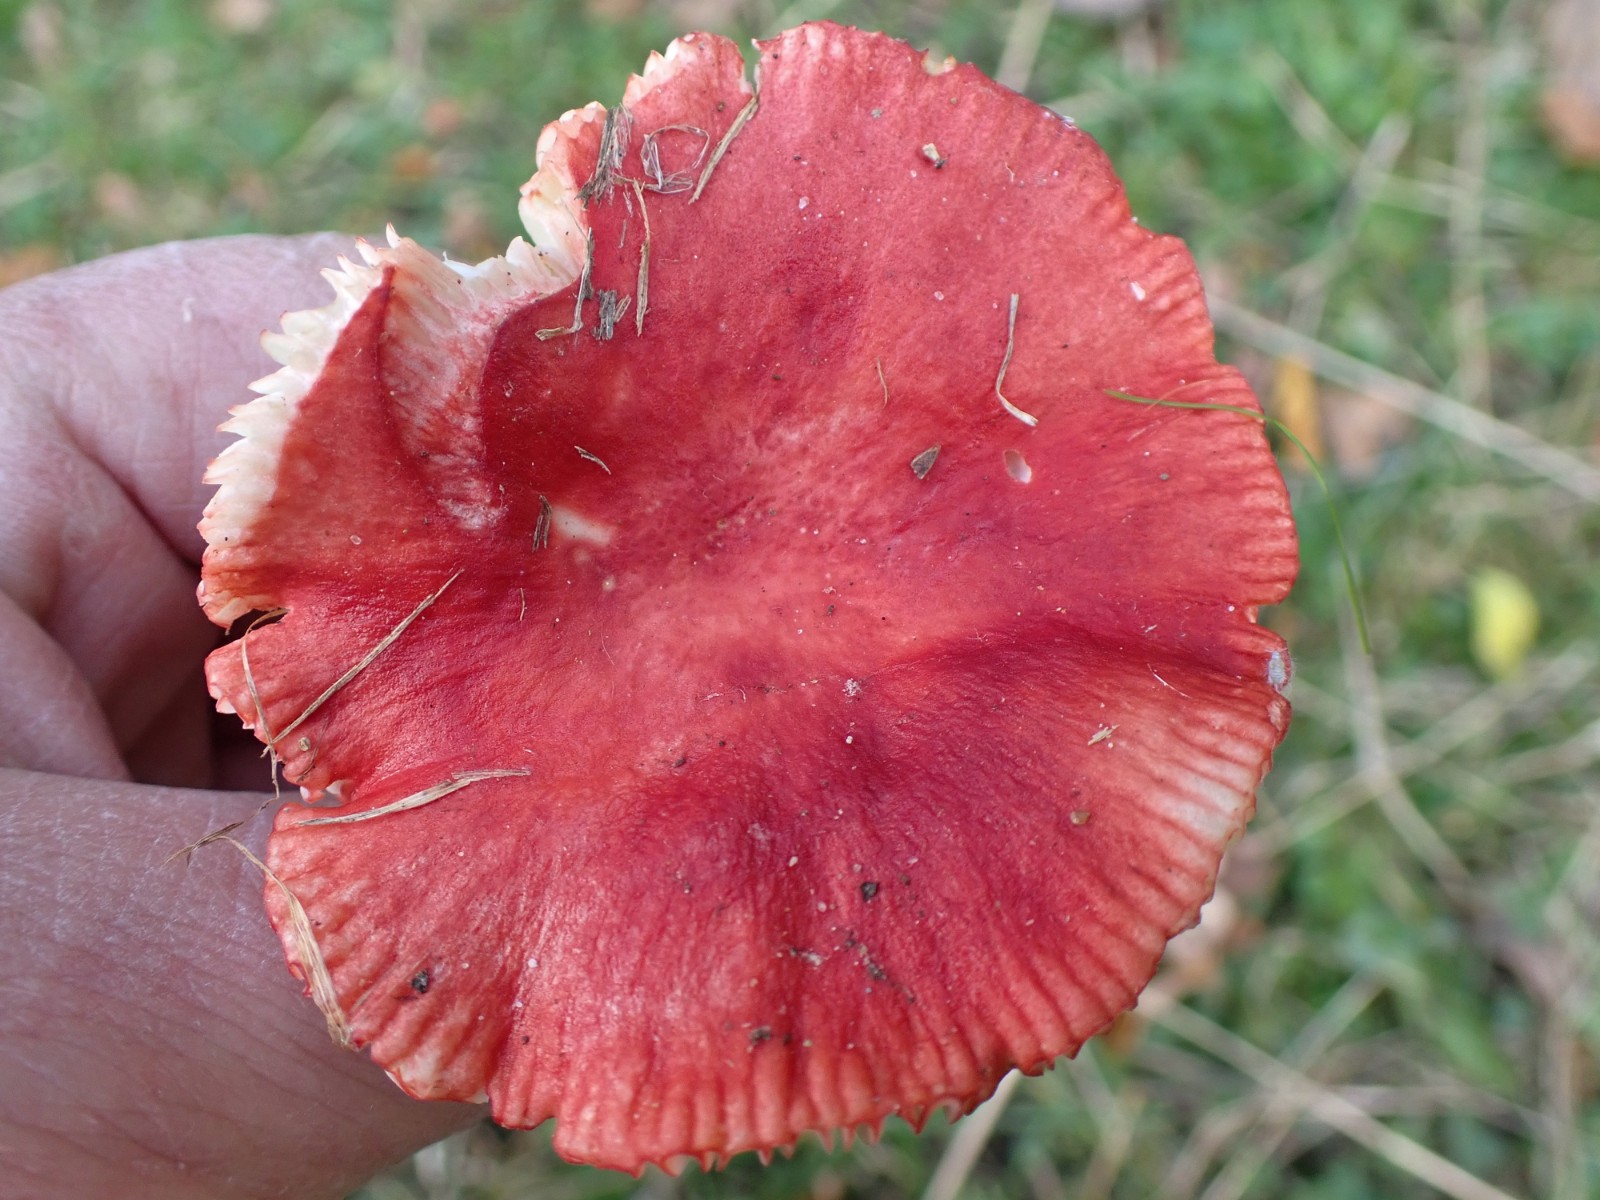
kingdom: Fungi
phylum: Basidiomycota
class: Agaricomycetes
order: Russulales
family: Russulaceae
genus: Russula
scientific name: Russula
